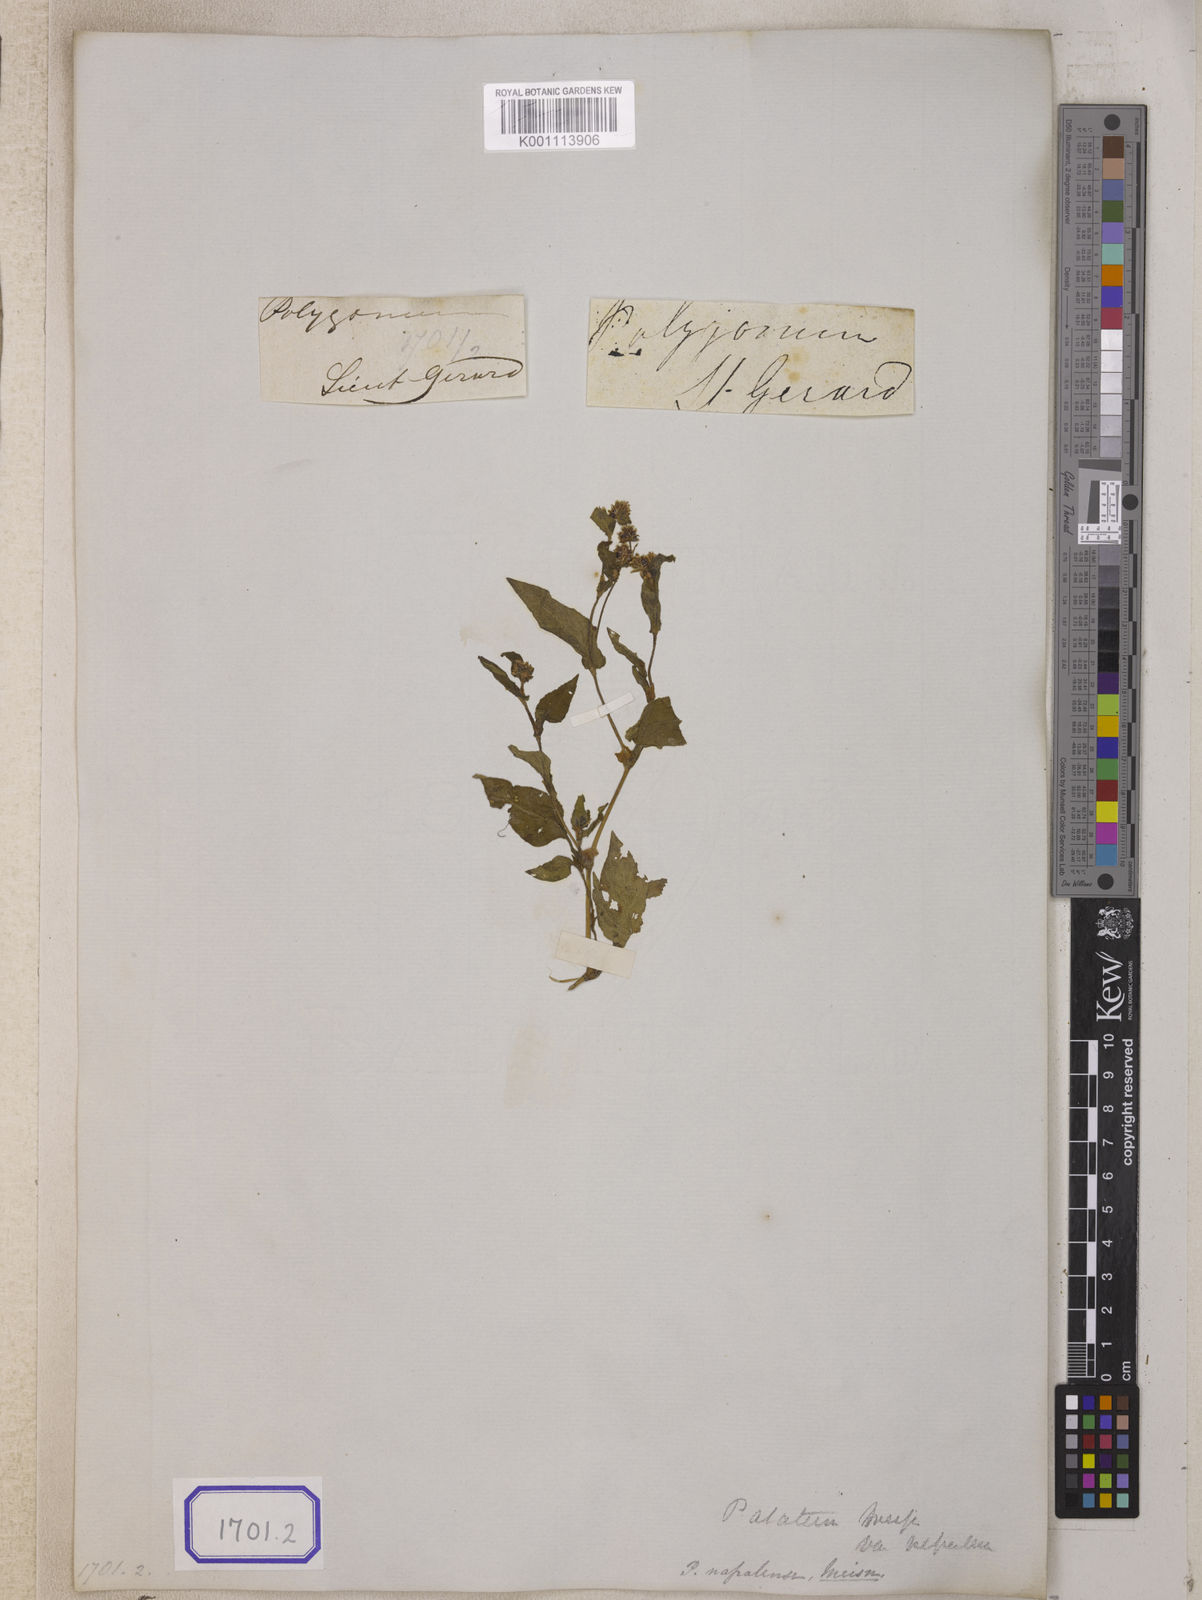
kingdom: Plantae
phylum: Tracheophyta
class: Magnoliopsida
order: Caryophyllales
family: Polygonaceae
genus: Persicaria
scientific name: Persicaria nepalensis
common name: Nepal persicaria
